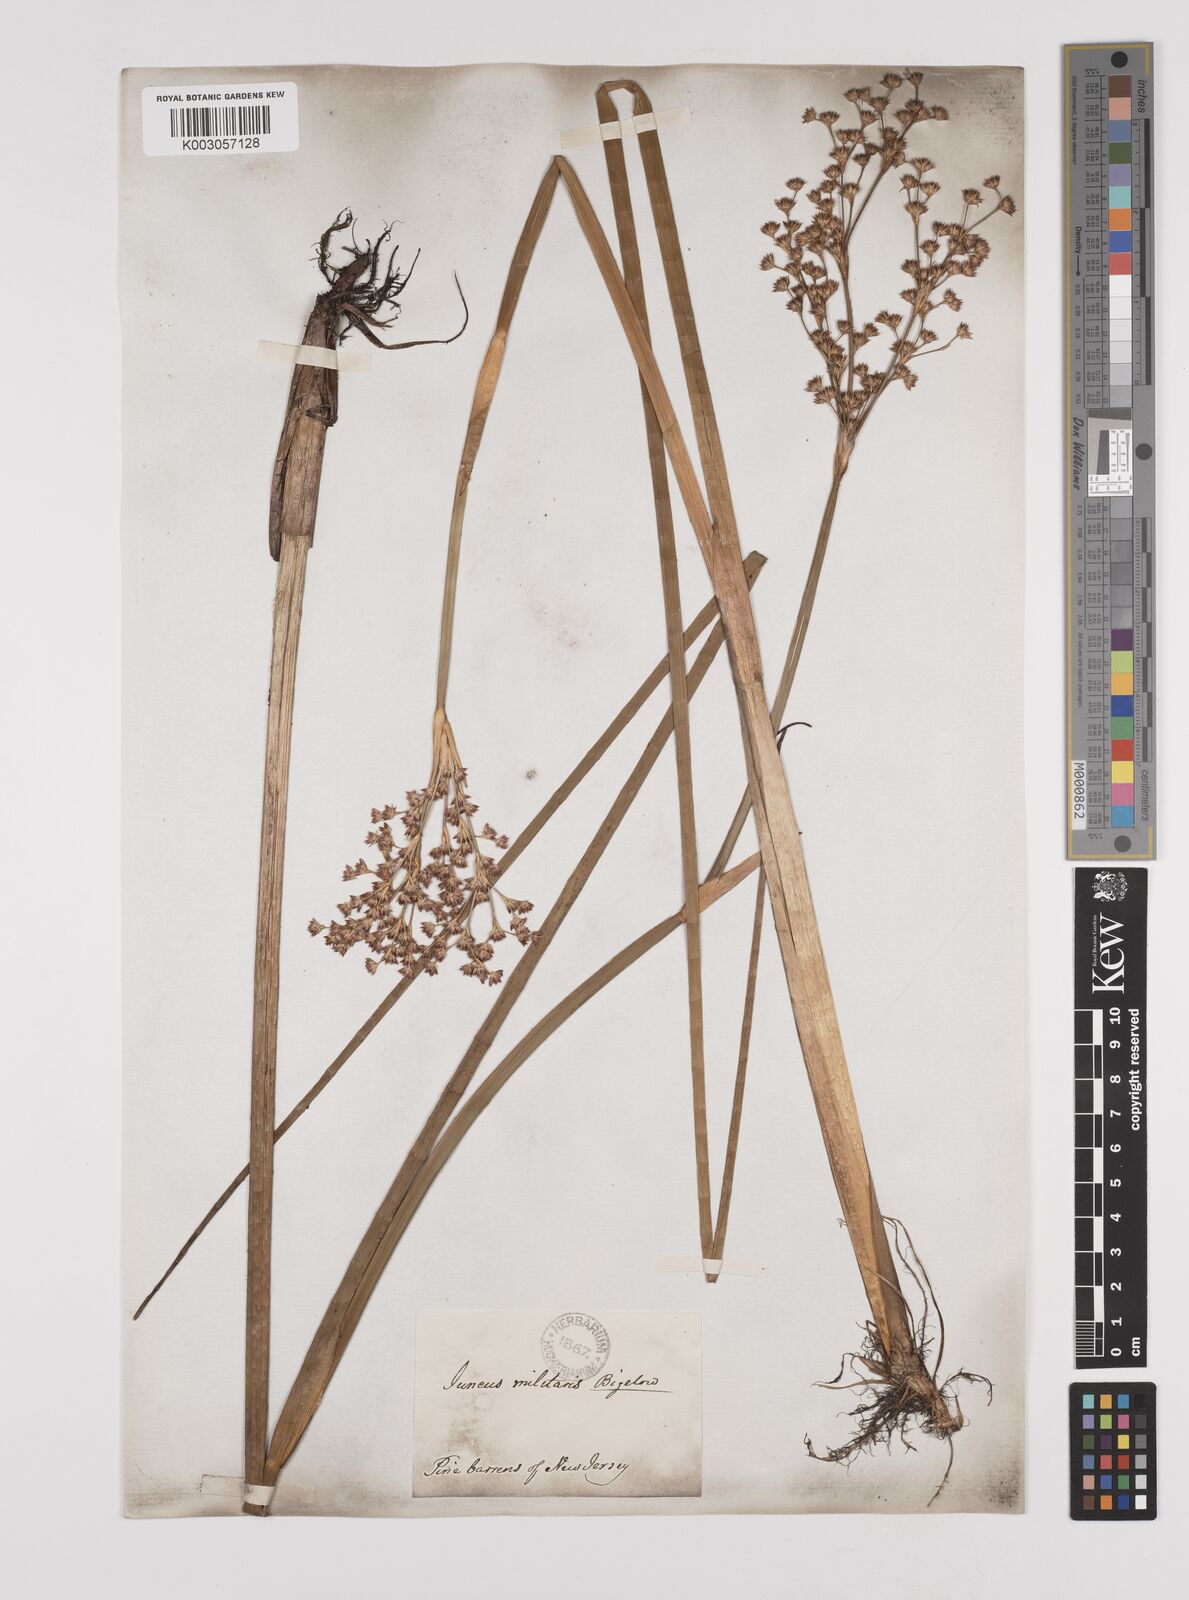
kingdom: Plantae
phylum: Tracheophyta
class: Liliopsida
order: Poales
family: Juncaceae
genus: Juncus
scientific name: Juncus militaris
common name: Bayonet rush
